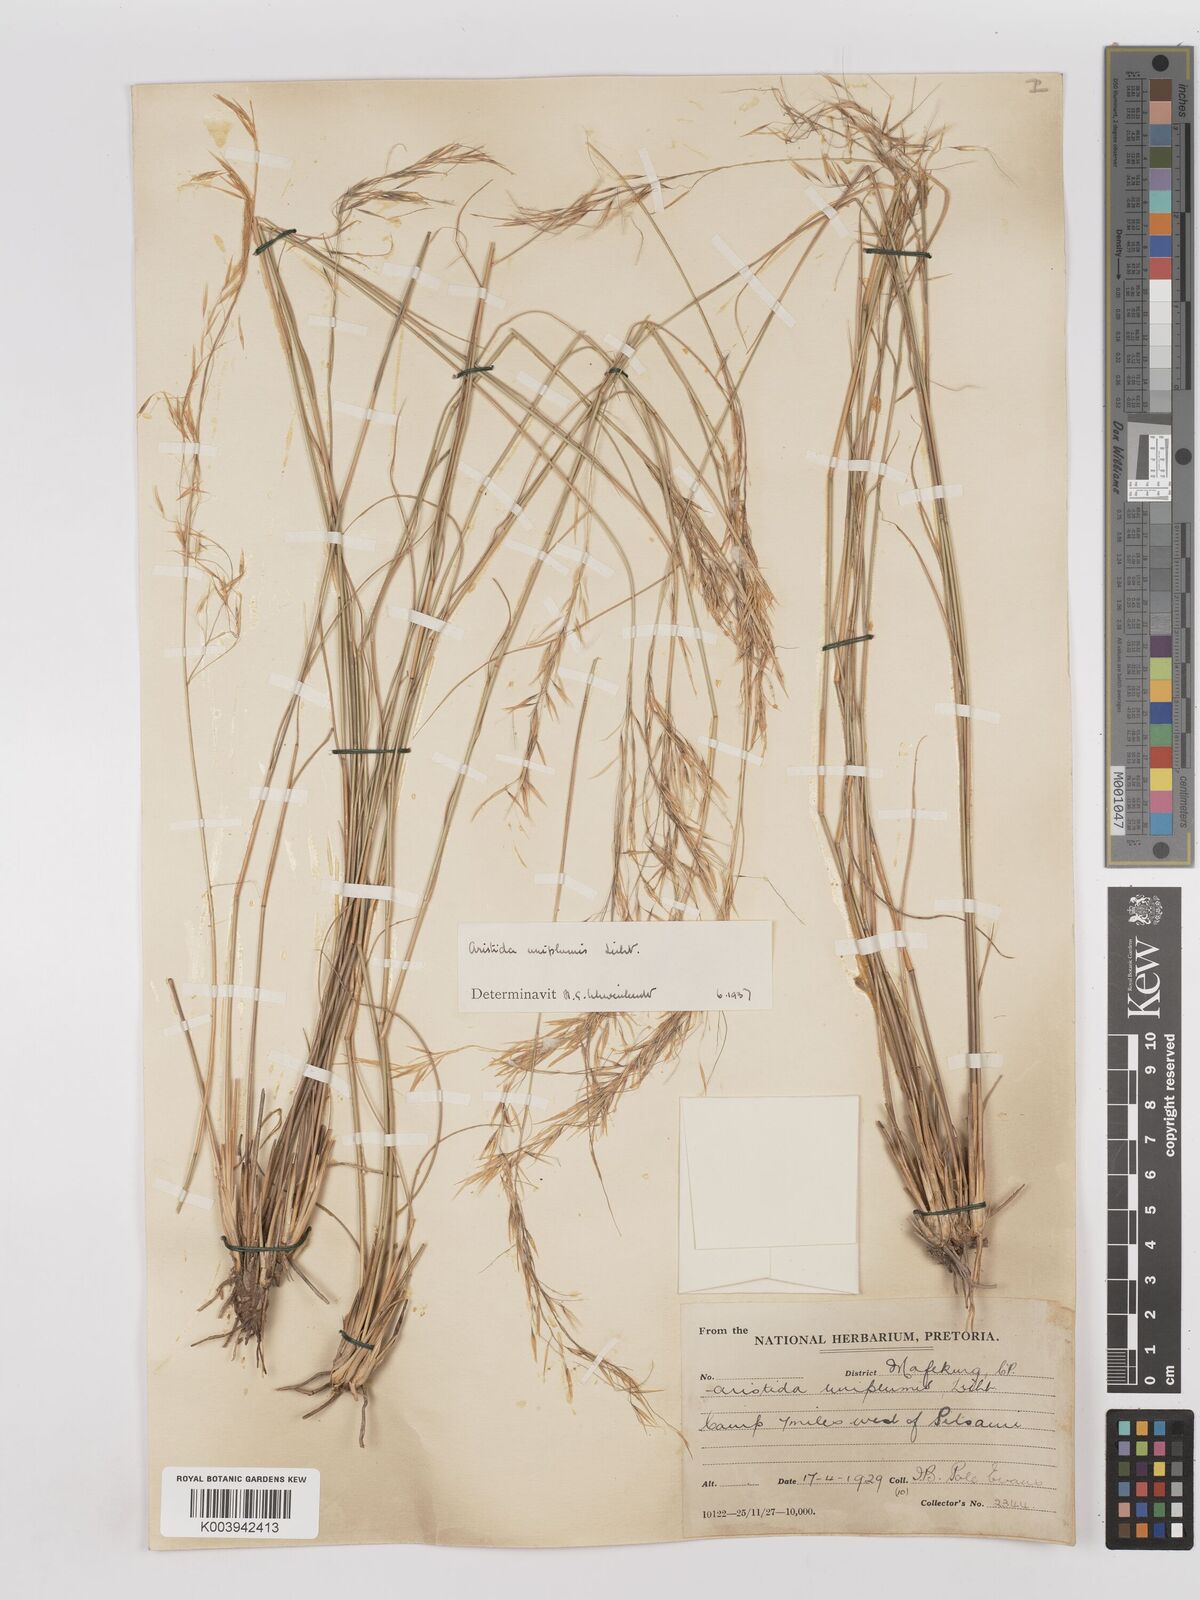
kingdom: Plantae
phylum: Tracheophyta
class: Liliopsida
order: Poales
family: Poaceae
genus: Stipagrostis
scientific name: Stipagrostis uniplumis
